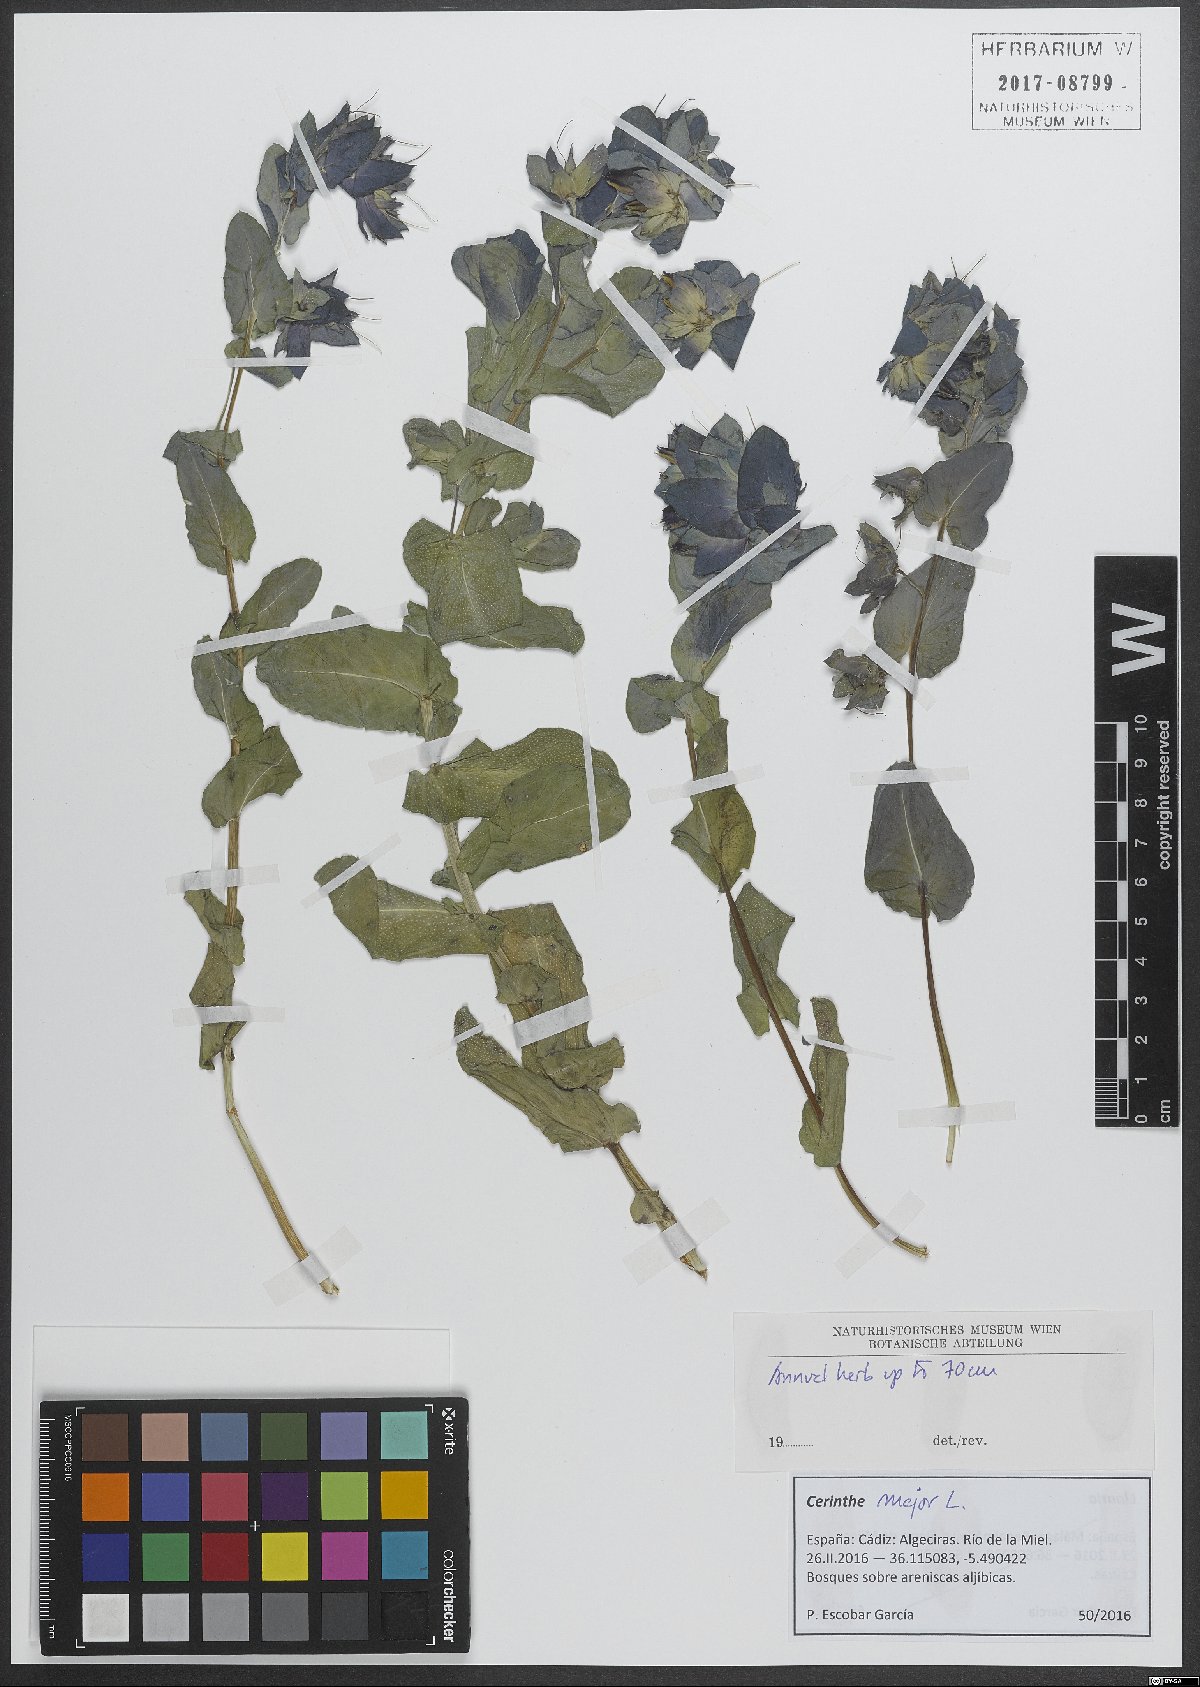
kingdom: Plantae
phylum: Tracheophyta
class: Magnoliopsida
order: Boraginales
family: Boraginaceae
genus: Cerinthe
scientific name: Cerinthe major
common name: Greater honeywort
